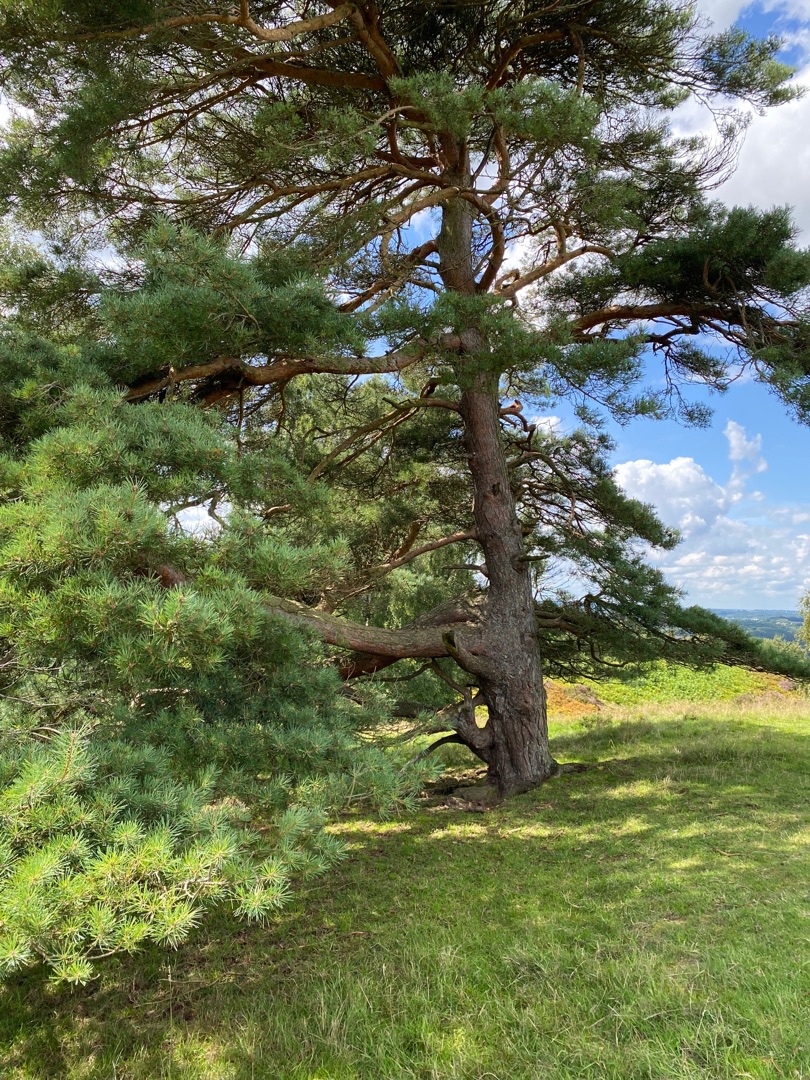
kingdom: Plantae
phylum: Tracheophyta
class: Pinopsida
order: Pinales
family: Pinaceae
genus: Pinus
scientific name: Pinus sylvestris
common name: Skov-fyr
